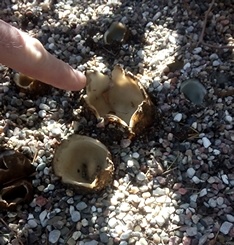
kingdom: Fungi
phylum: Ascomycota
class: Pezizomycetes
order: Pezizales
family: Pyronemataceae
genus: Geopora
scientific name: Geopora sumneriana
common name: vår-jordbæger
